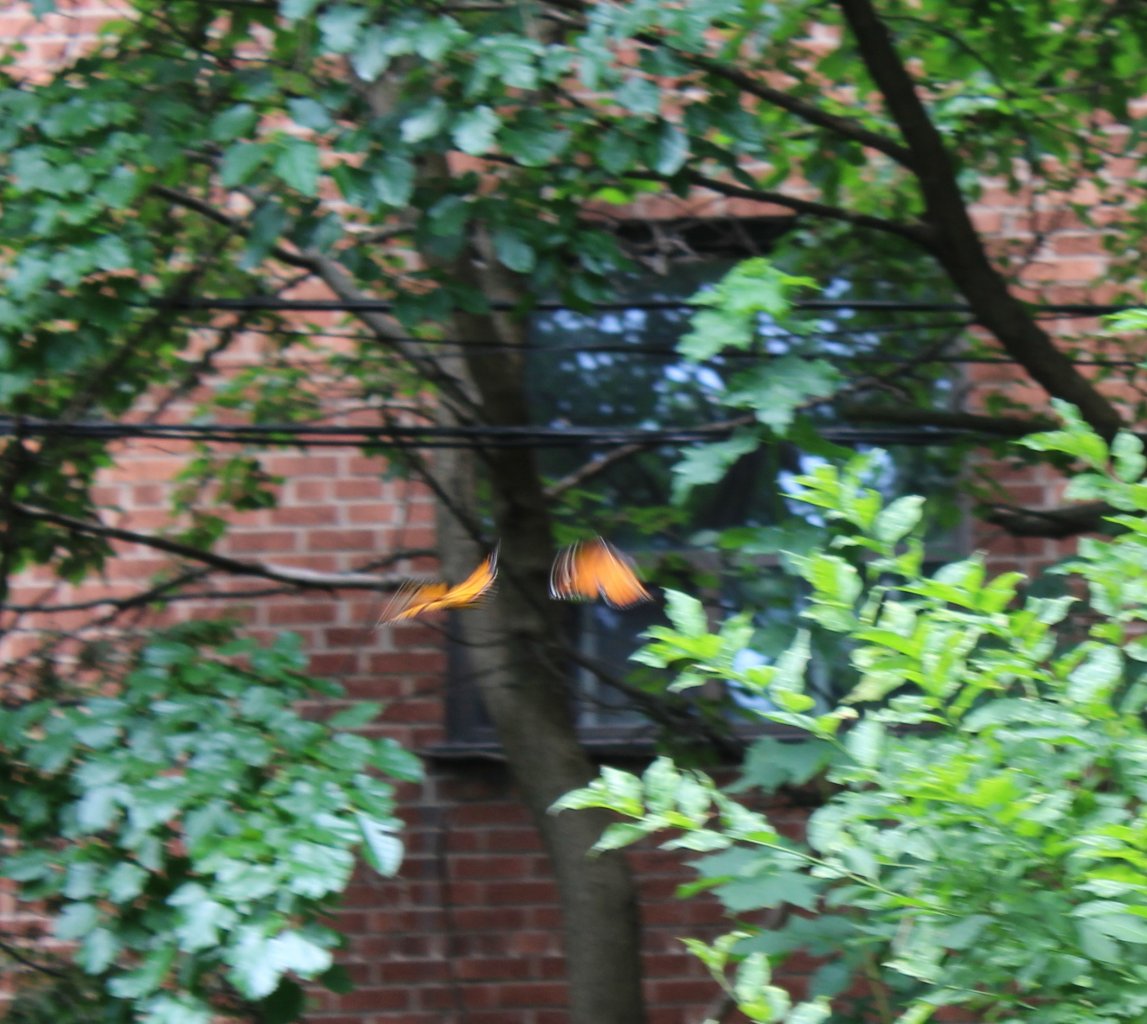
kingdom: Animalia
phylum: Arthropoda
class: Insecta
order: Lepidoptera
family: Nymphalidae
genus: Danaus
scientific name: Danaus plexippus
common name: Monarch
